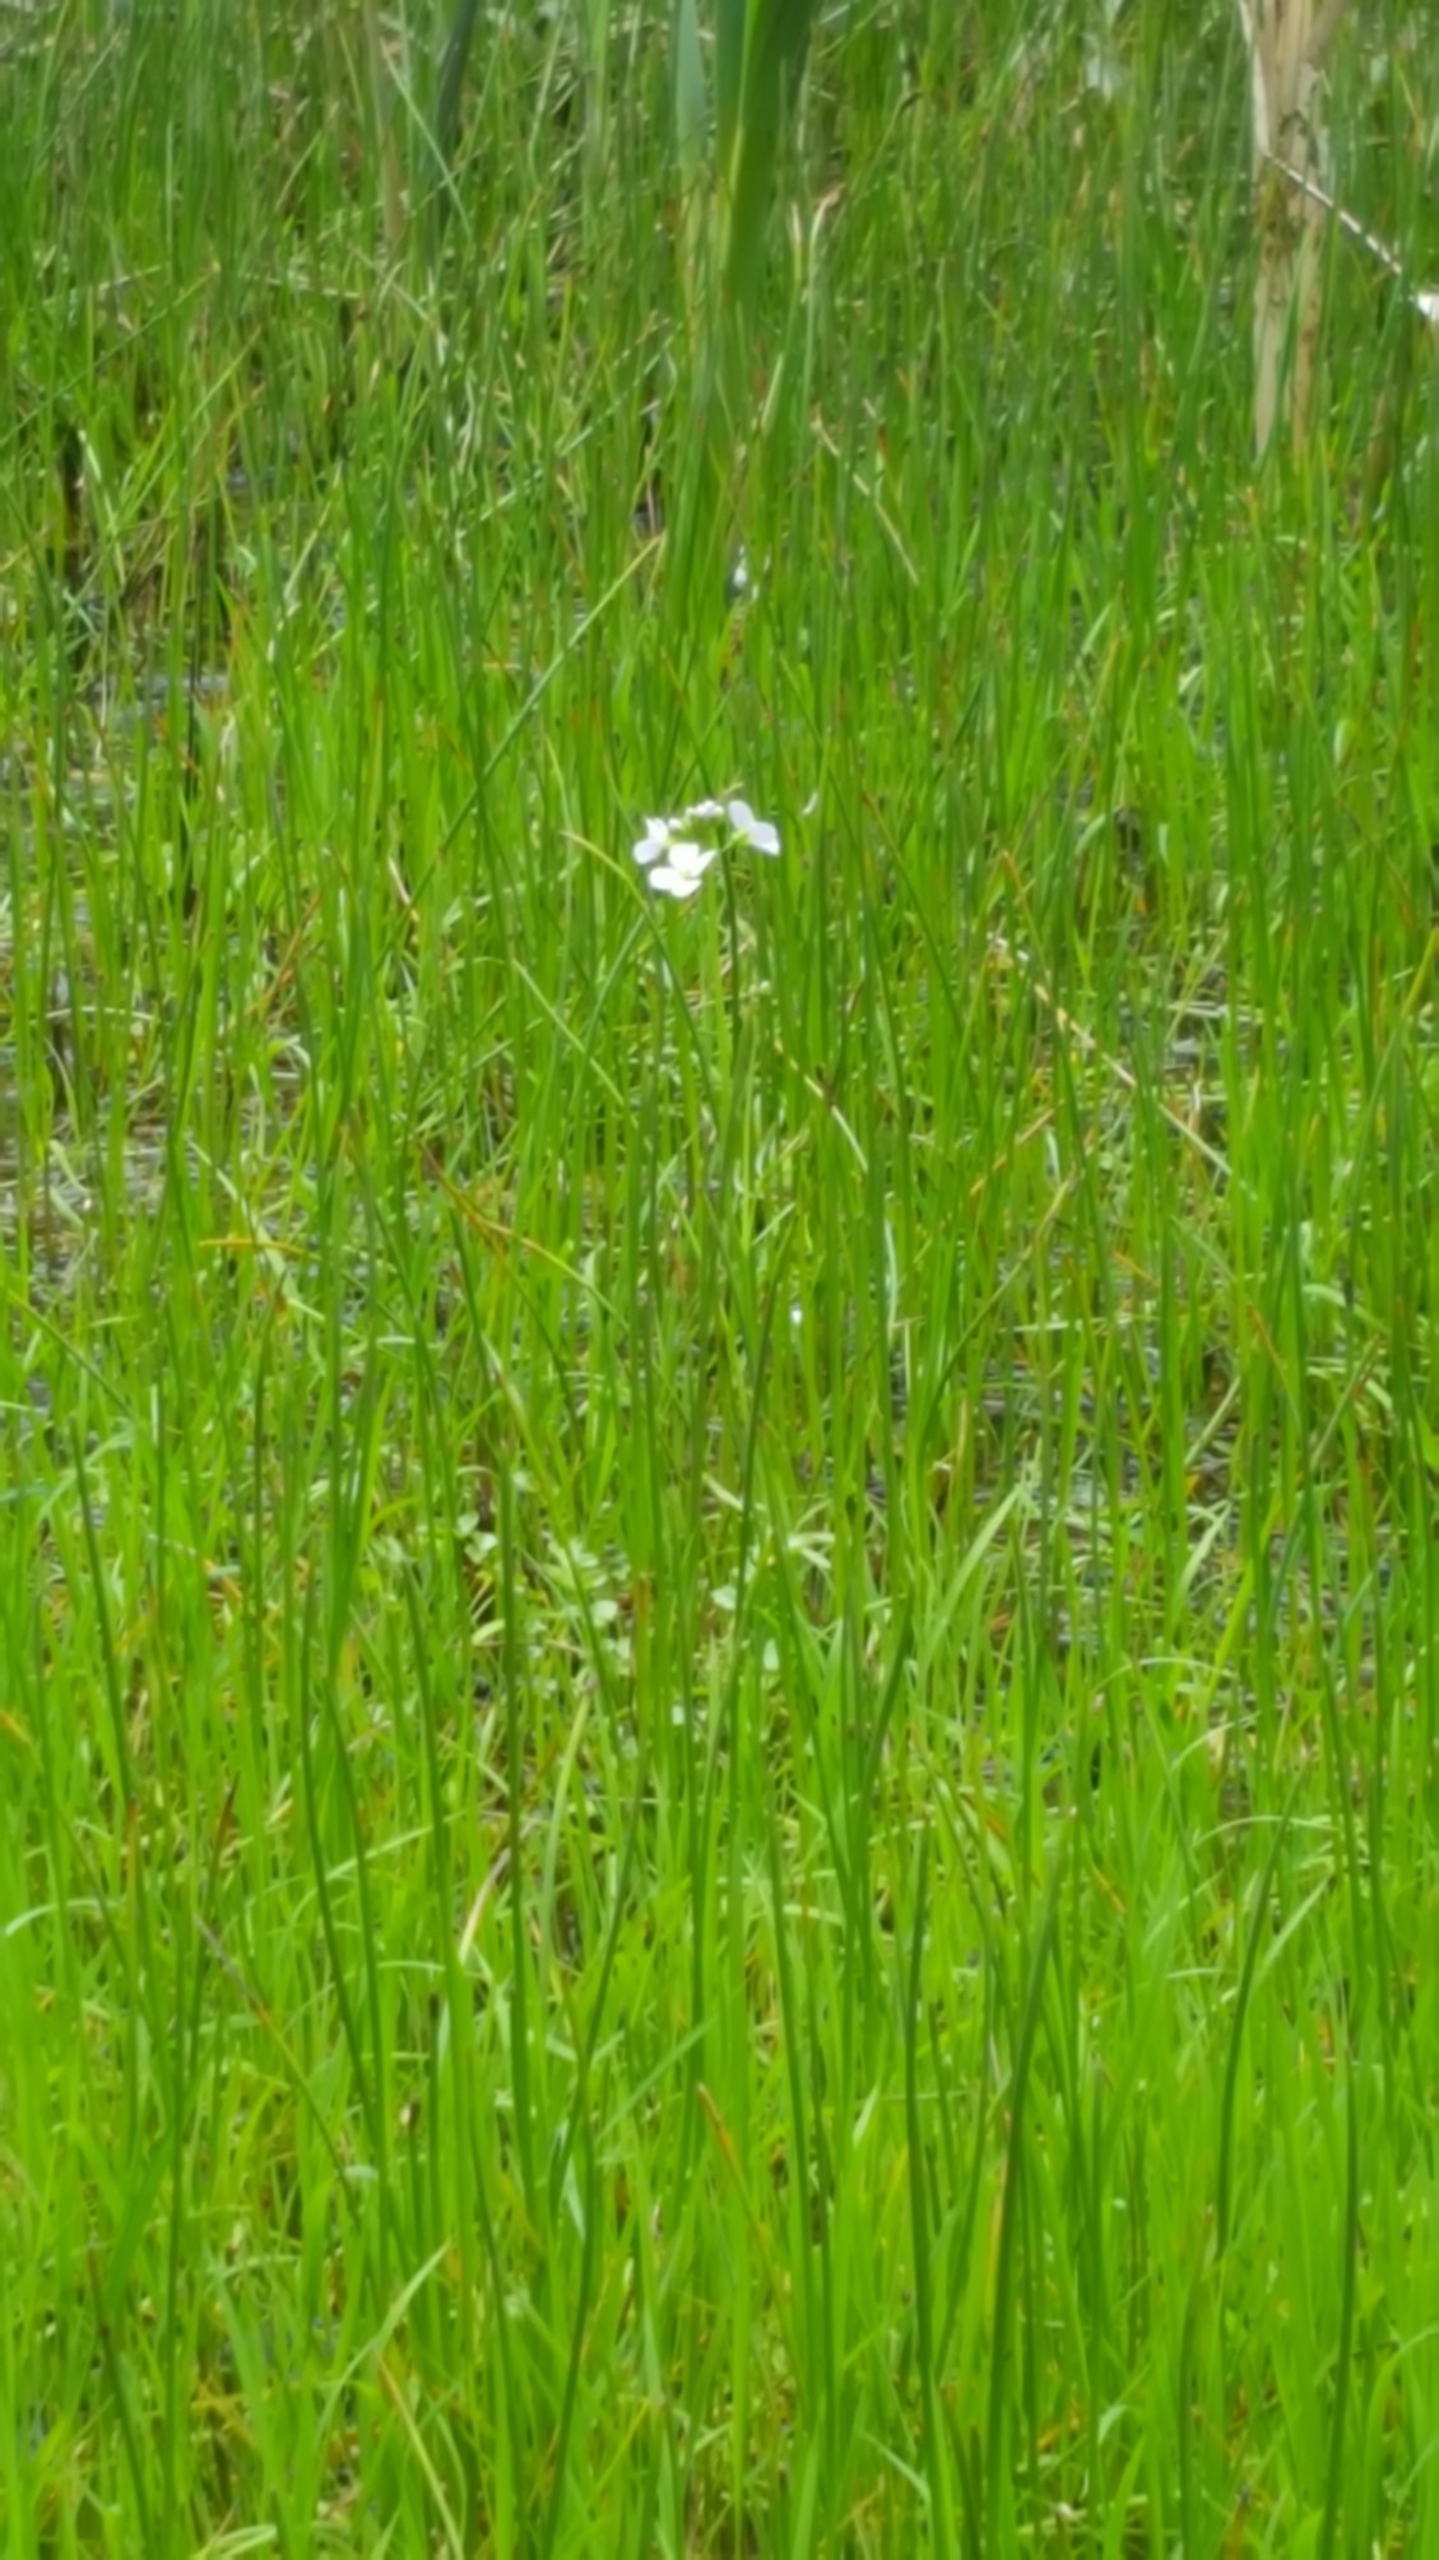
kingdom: Plantae
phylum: Tracheophyta
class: Magnoliopsida
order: Brassicales
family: Brassicaceae
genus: Cardamine
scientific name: Cardamine pratensis
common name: Engkarse
